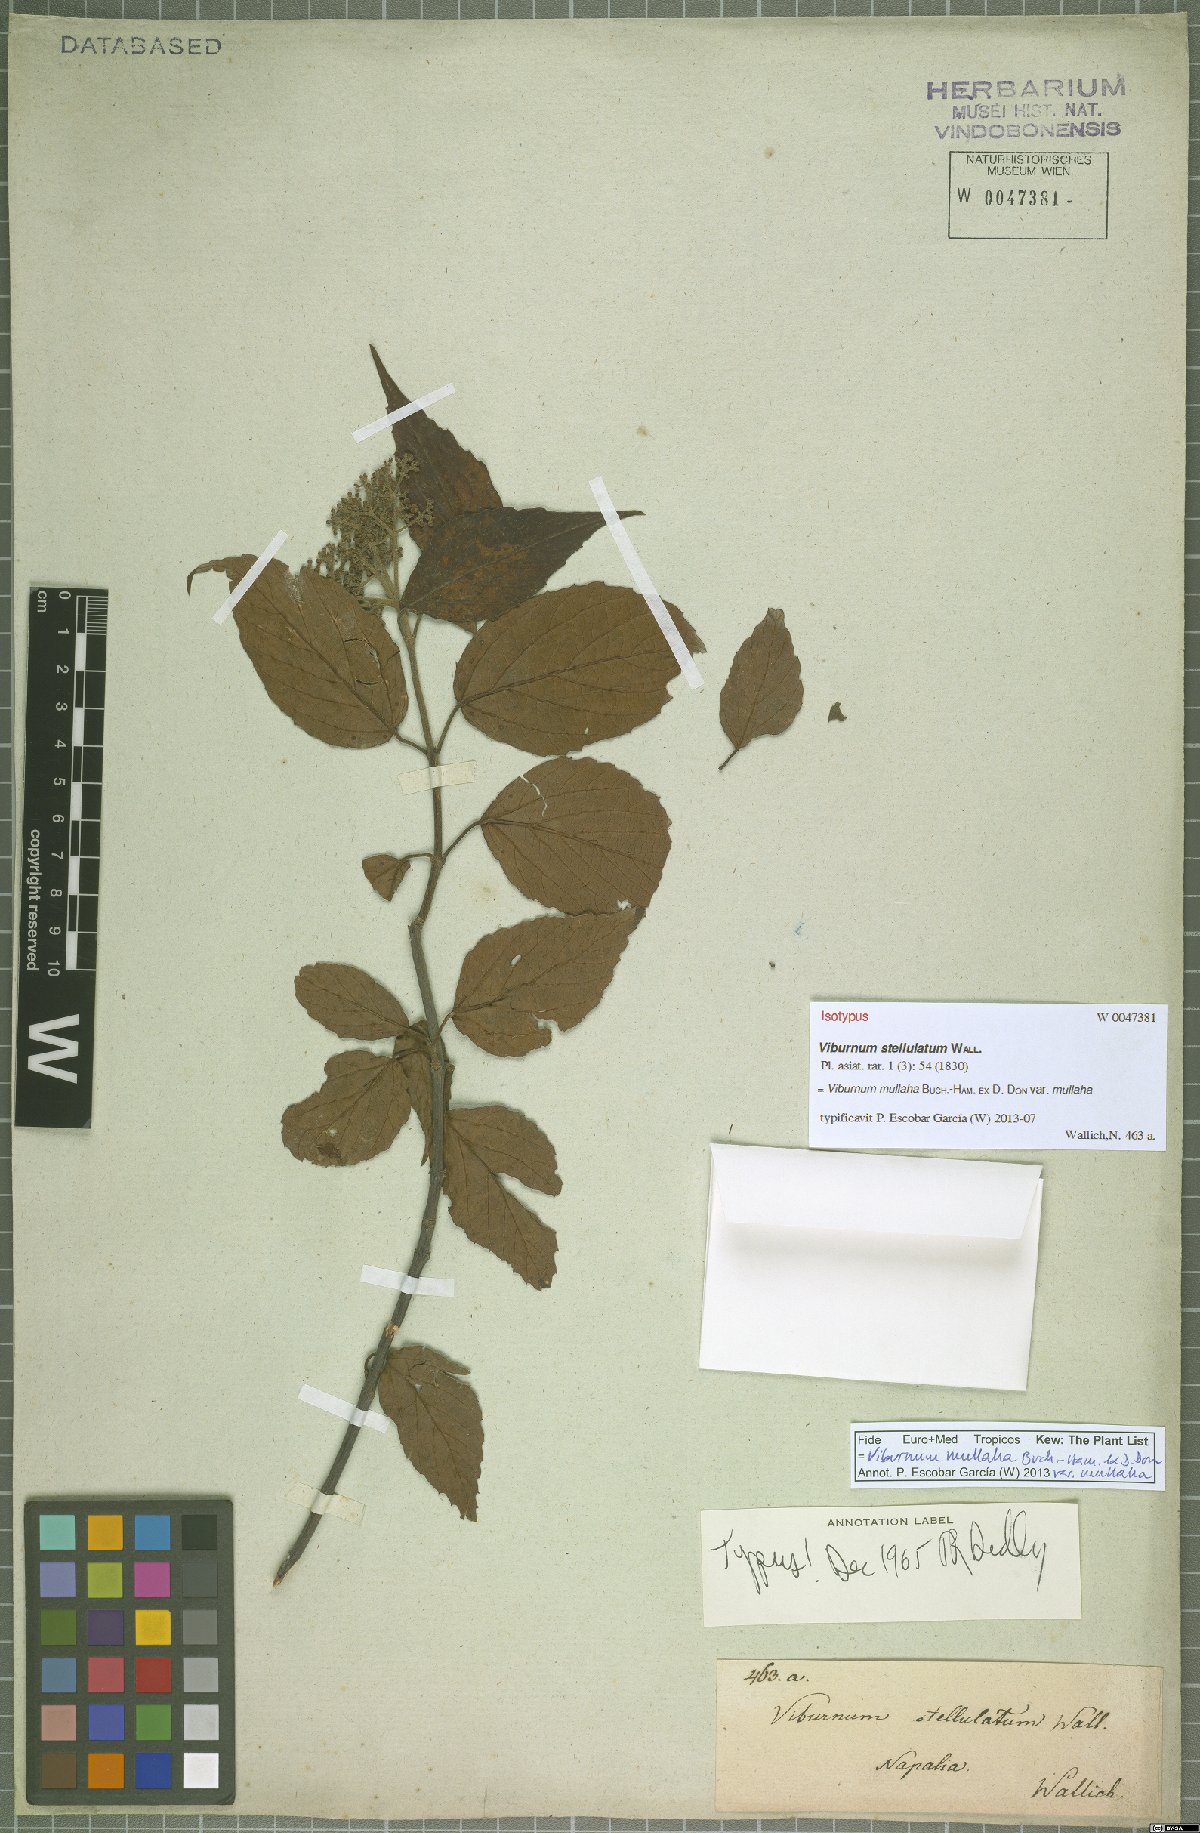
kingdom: Plantae
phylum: Tracheophyta
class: Magnoliopsida
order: Dipsacales
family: Viburnaceae
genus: Viburnum
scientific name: Viburnum mullaha
